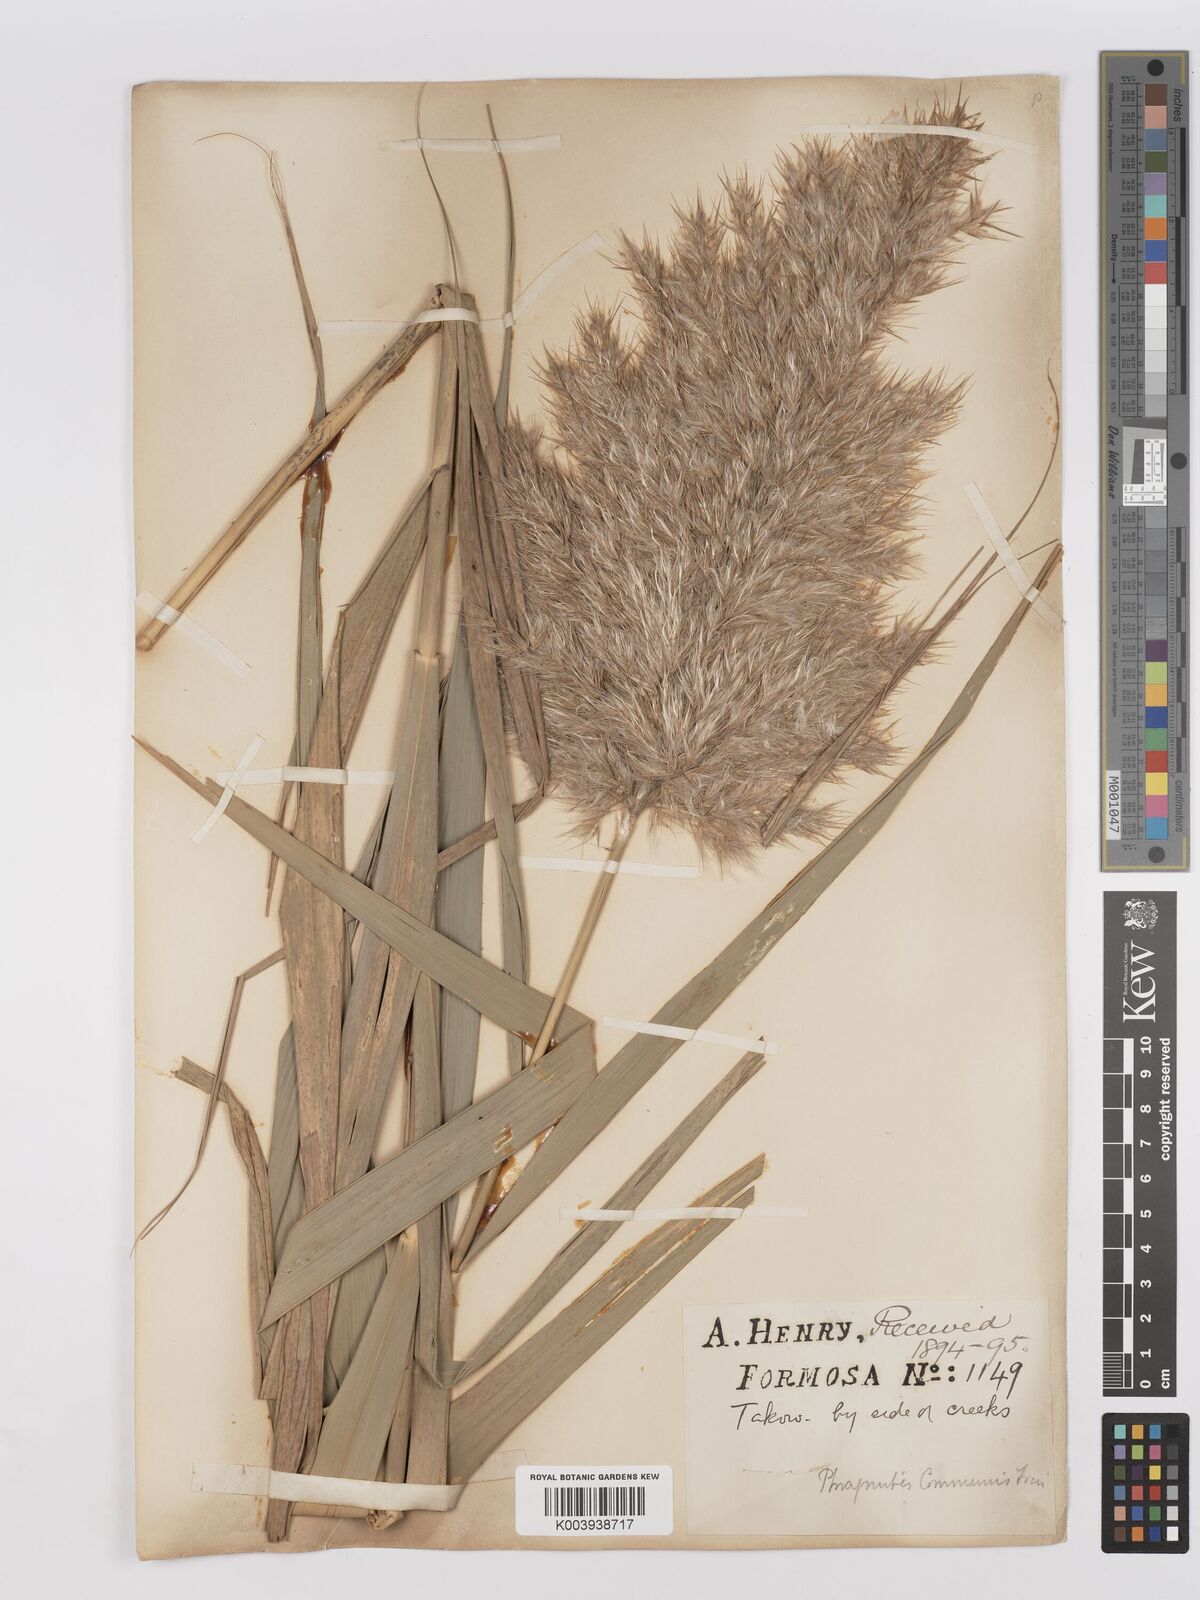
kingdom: Plantae
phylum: Tracheophyta
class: Liliopsida
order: Poales
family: Poaceae
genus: Phragmites
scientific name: Phragmites australis
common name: Common reed
